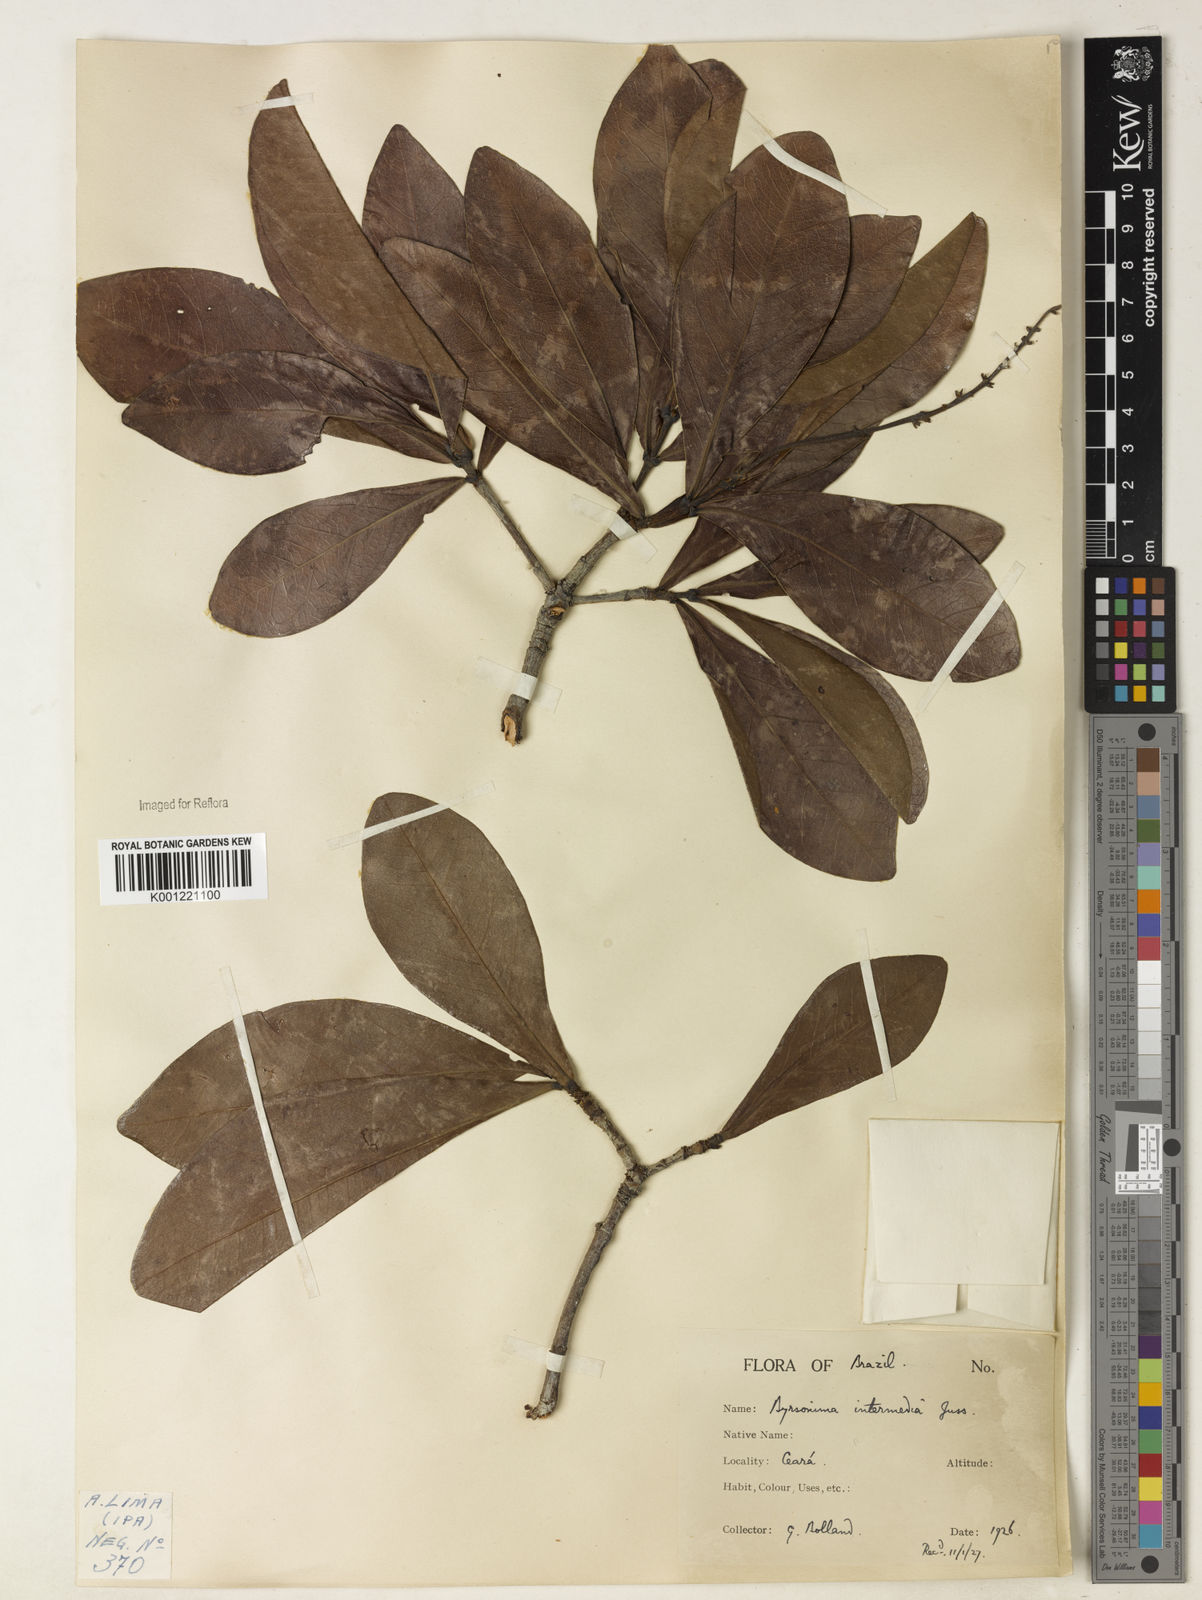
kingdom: Plantae
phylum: Tracheophyta
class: Magnoliopsida
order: Malpighiales
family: Malpighiaceae
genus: Byrsonima
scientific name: Byrsonima intermedia
